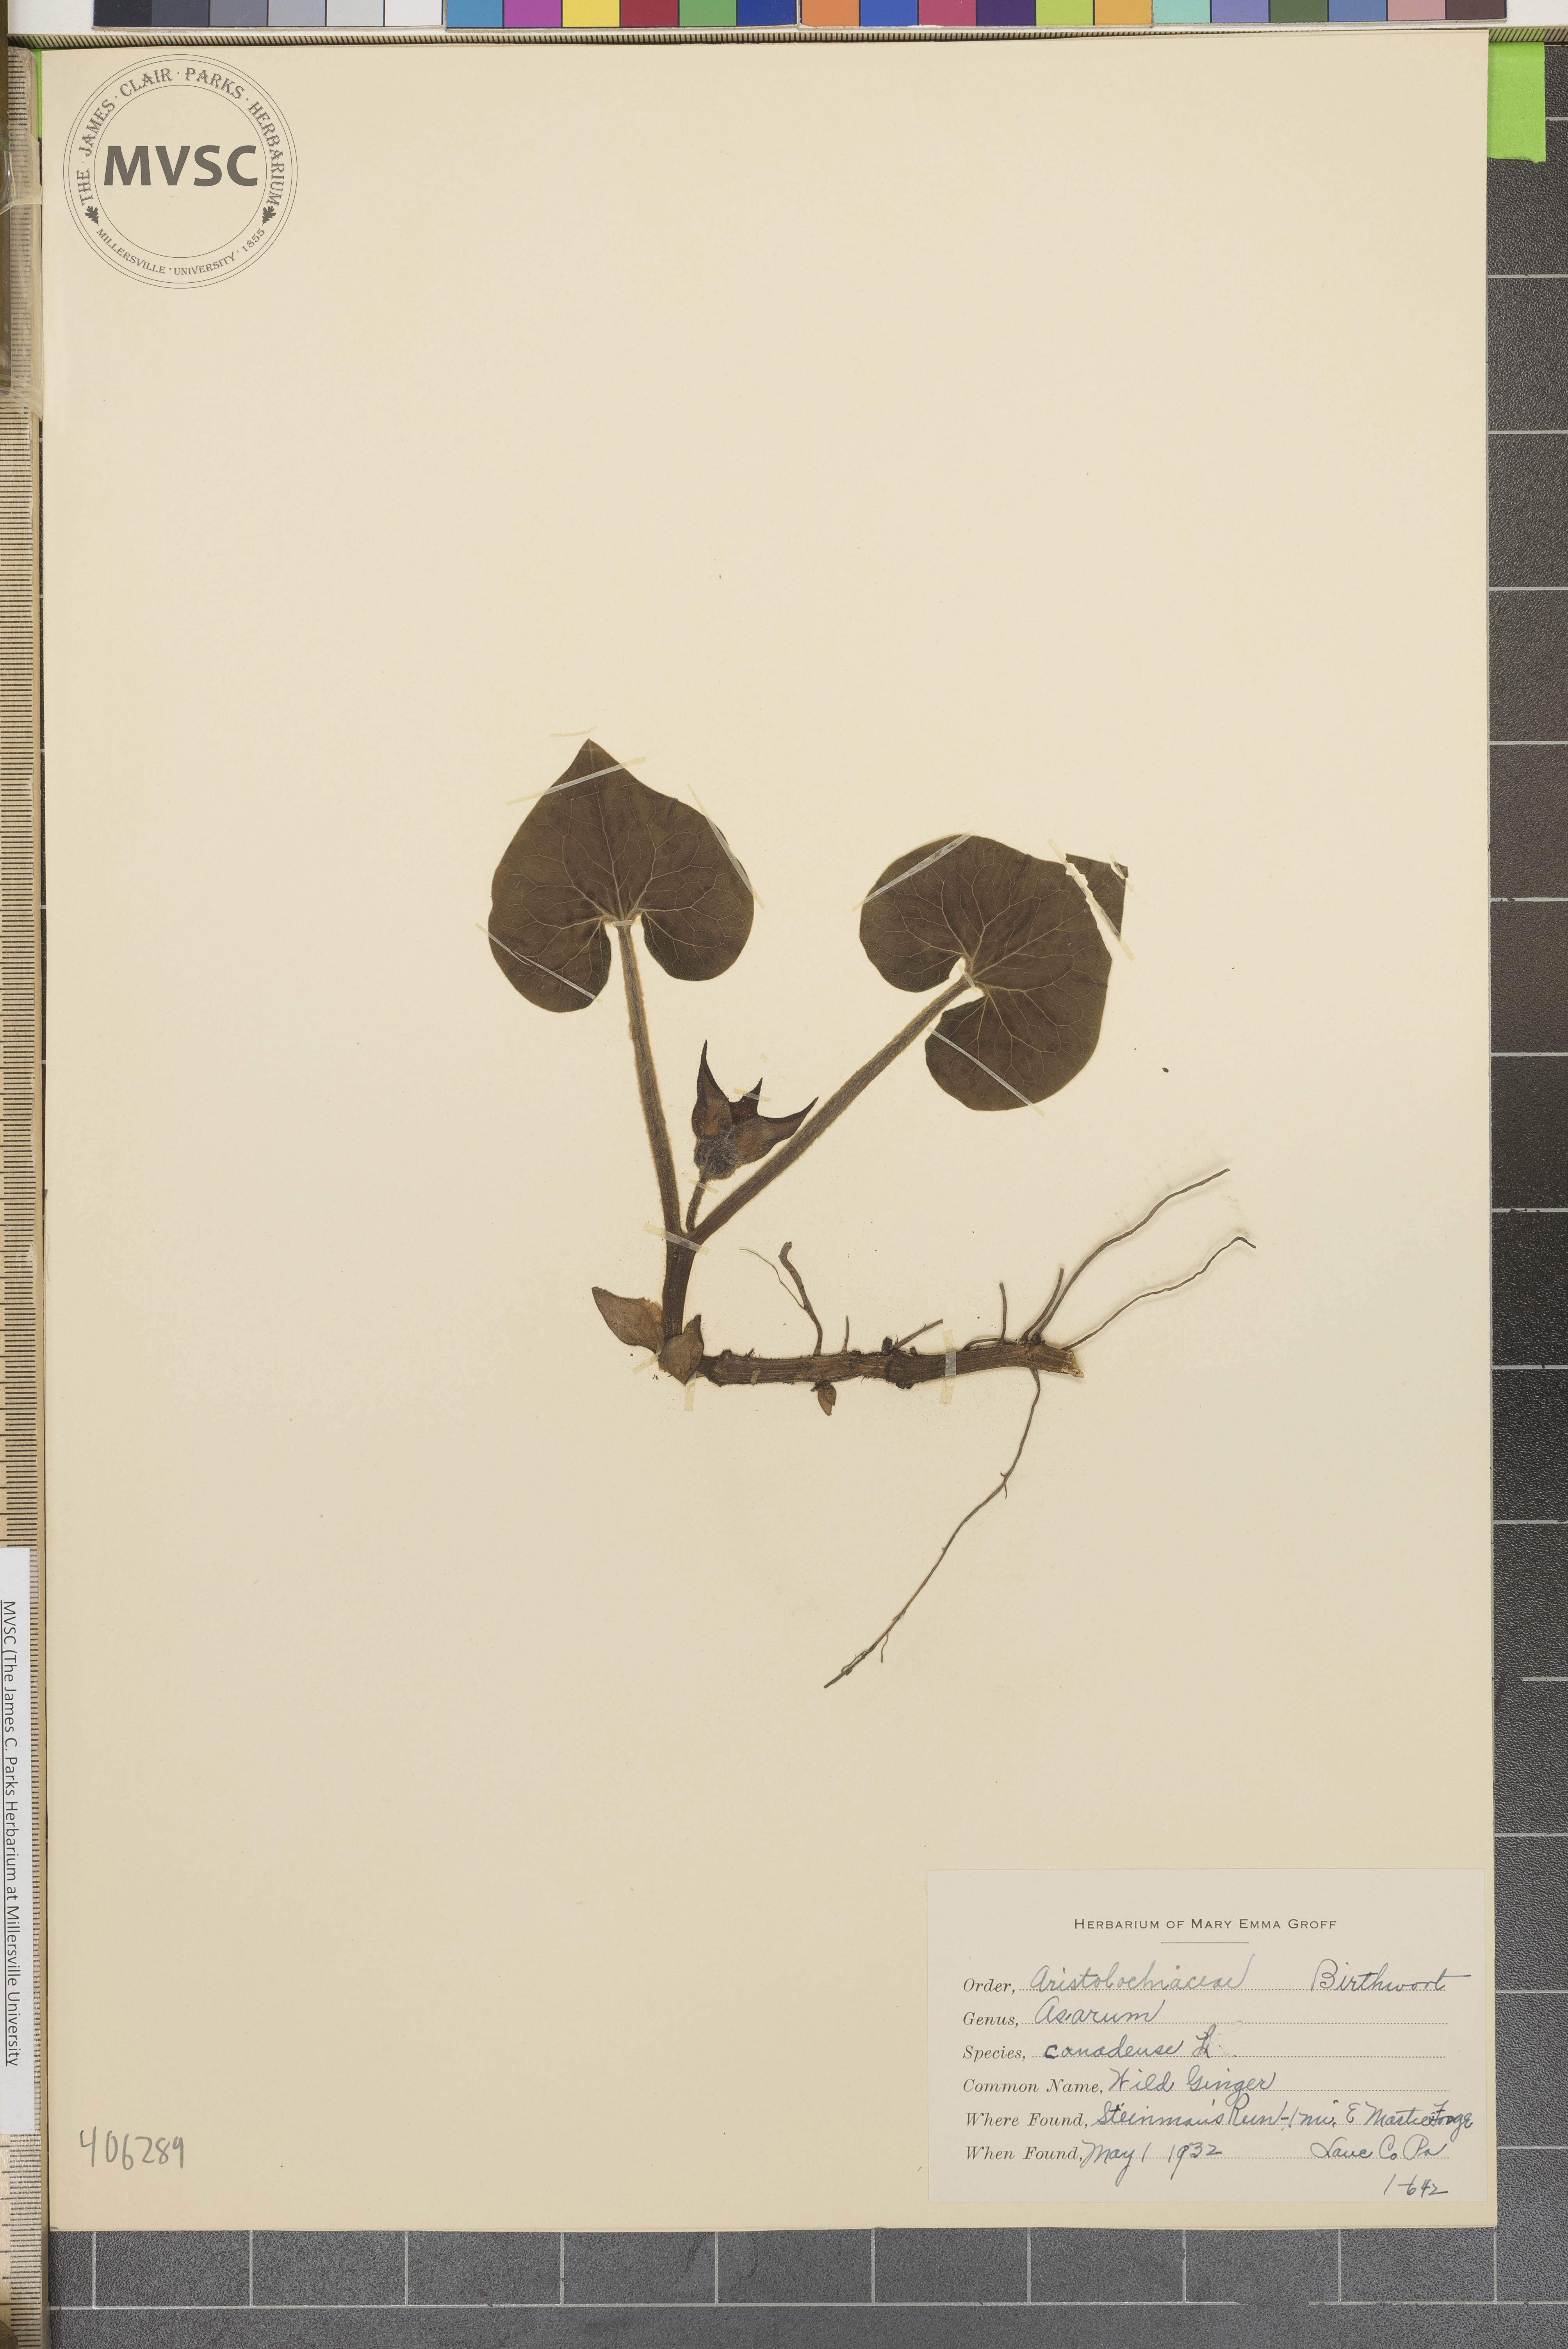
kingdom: Plantae
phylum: Tracheophyta
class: Magnoliopsida
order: Piperales
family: Aristolochiaceae
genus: Asarum
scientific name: Asarum canadense
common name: Wild Ginger
